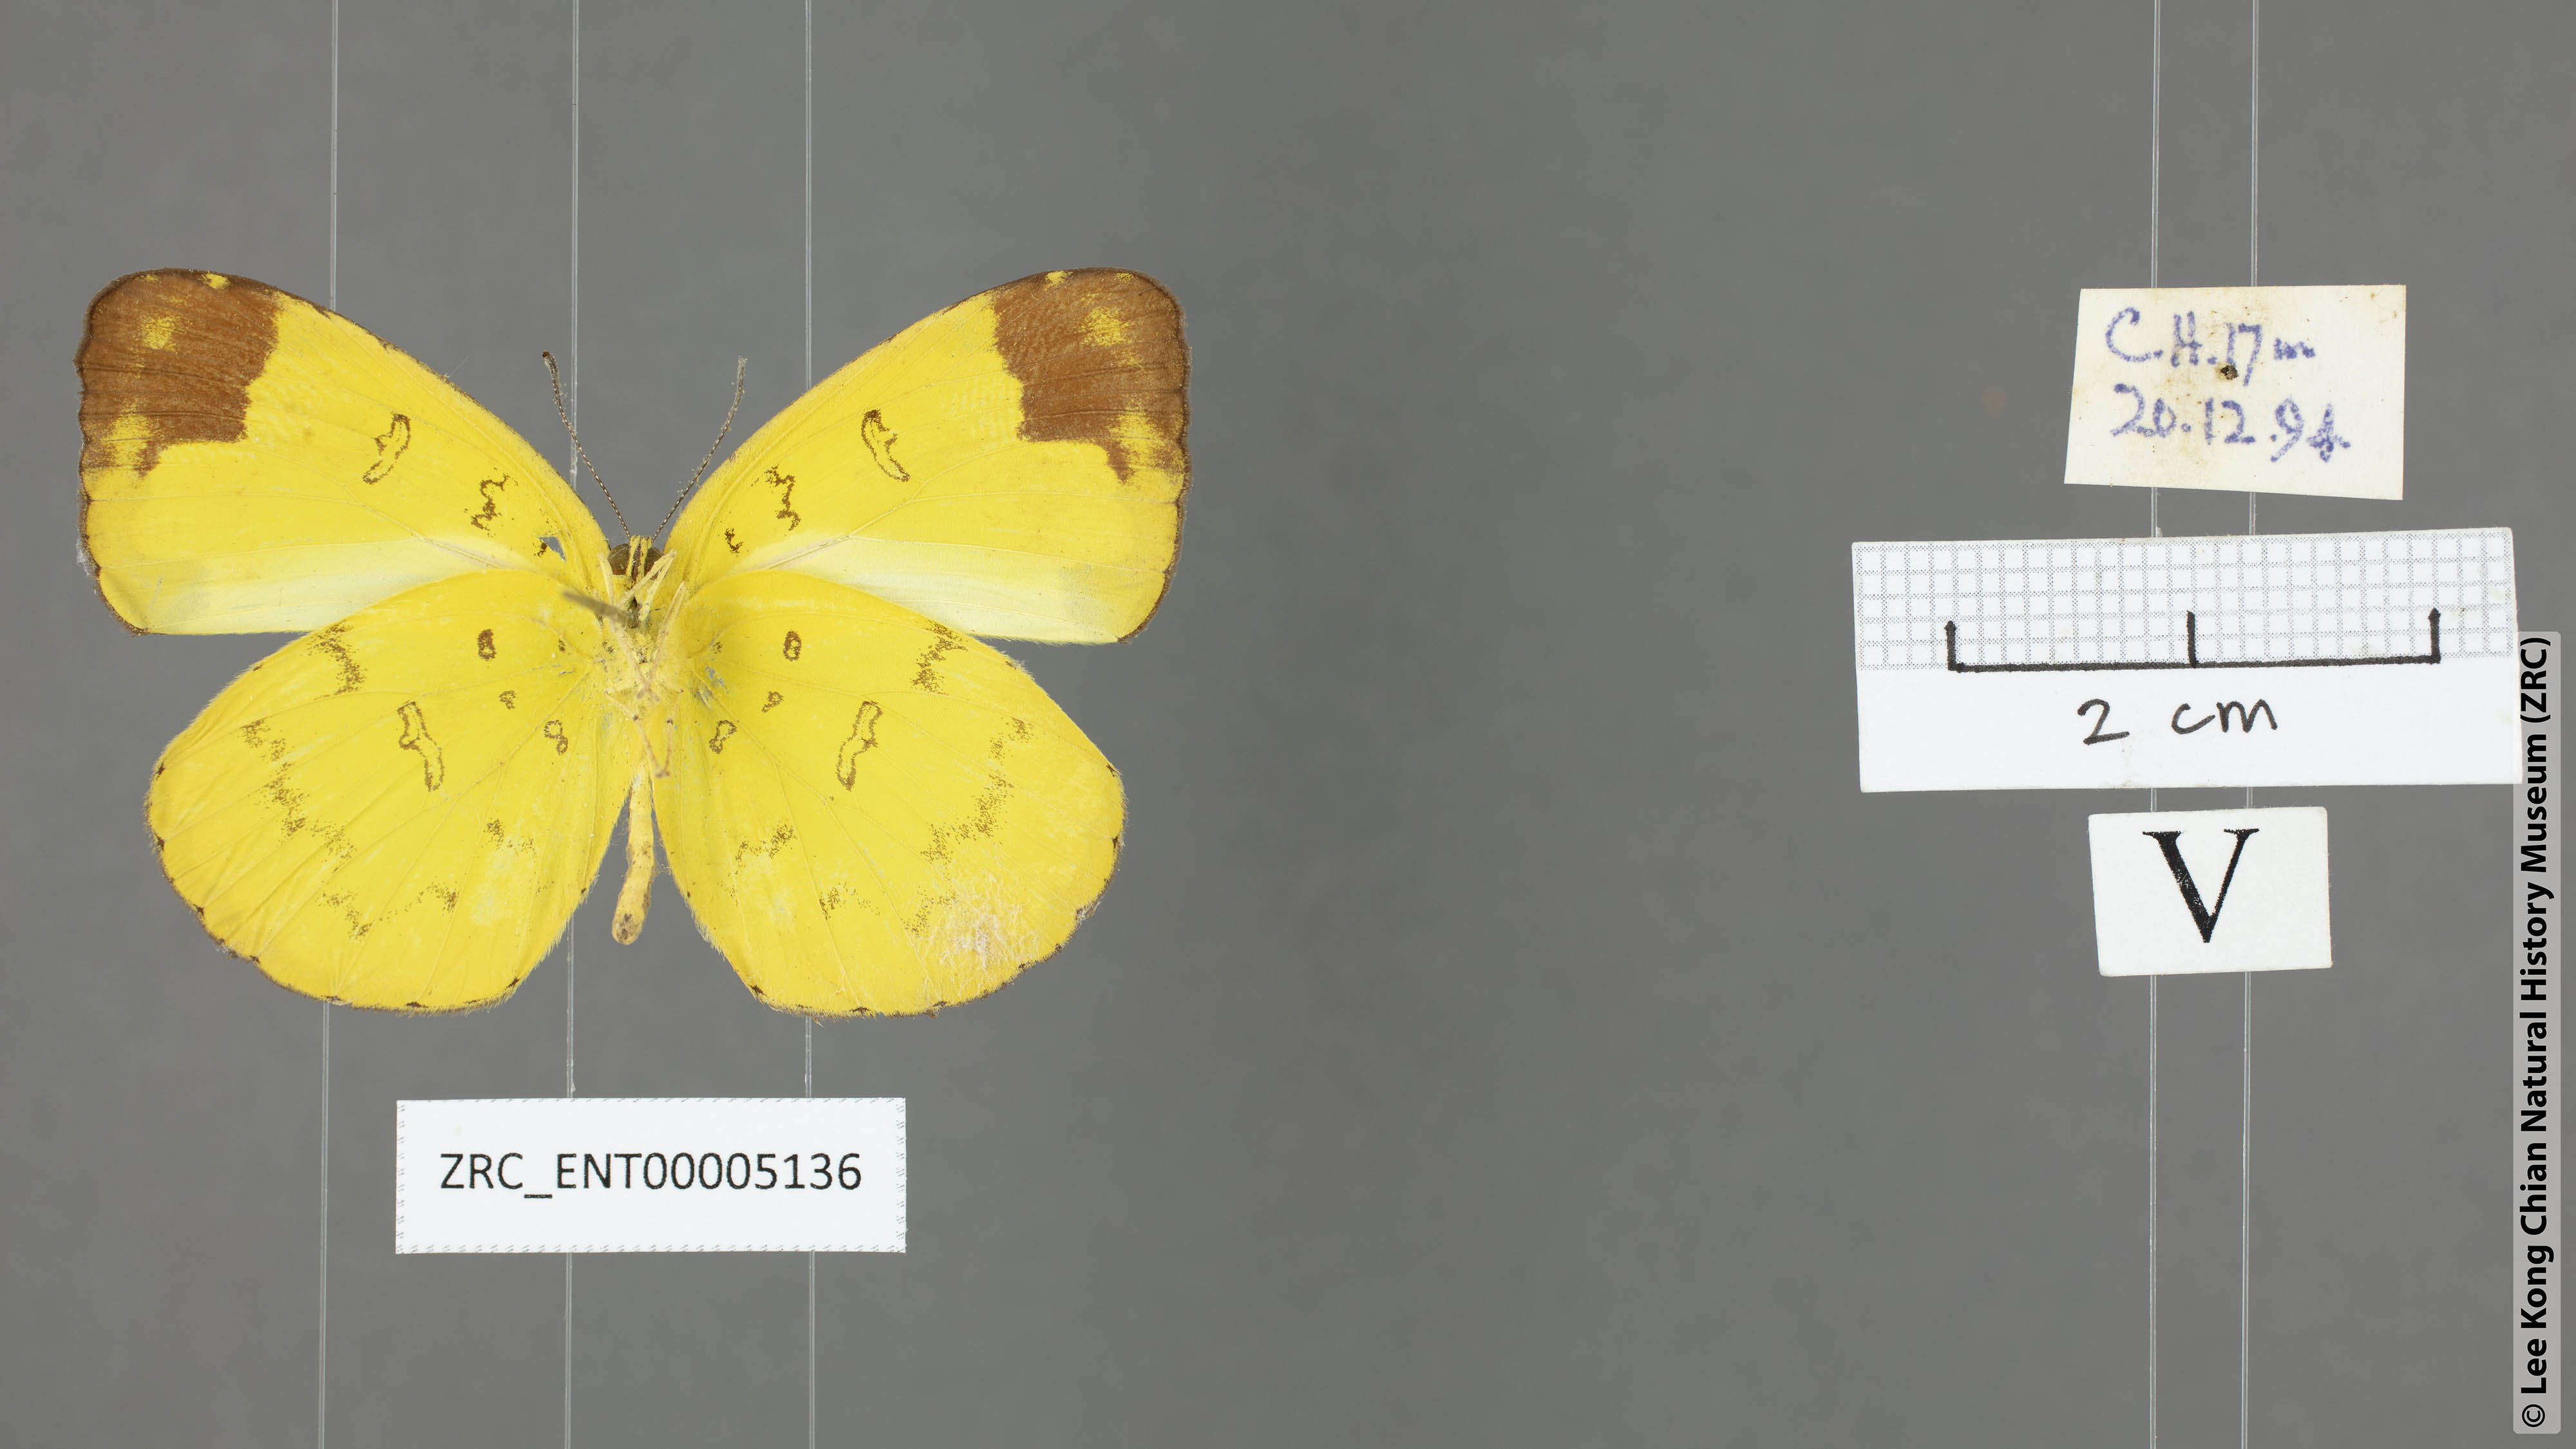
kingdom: Animalia
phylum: Arthropoda
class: Insecta
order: Lepidoptera
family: Pieridae
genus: Eurema
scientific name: Eurema simulatrix
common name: Hill grass yellow
